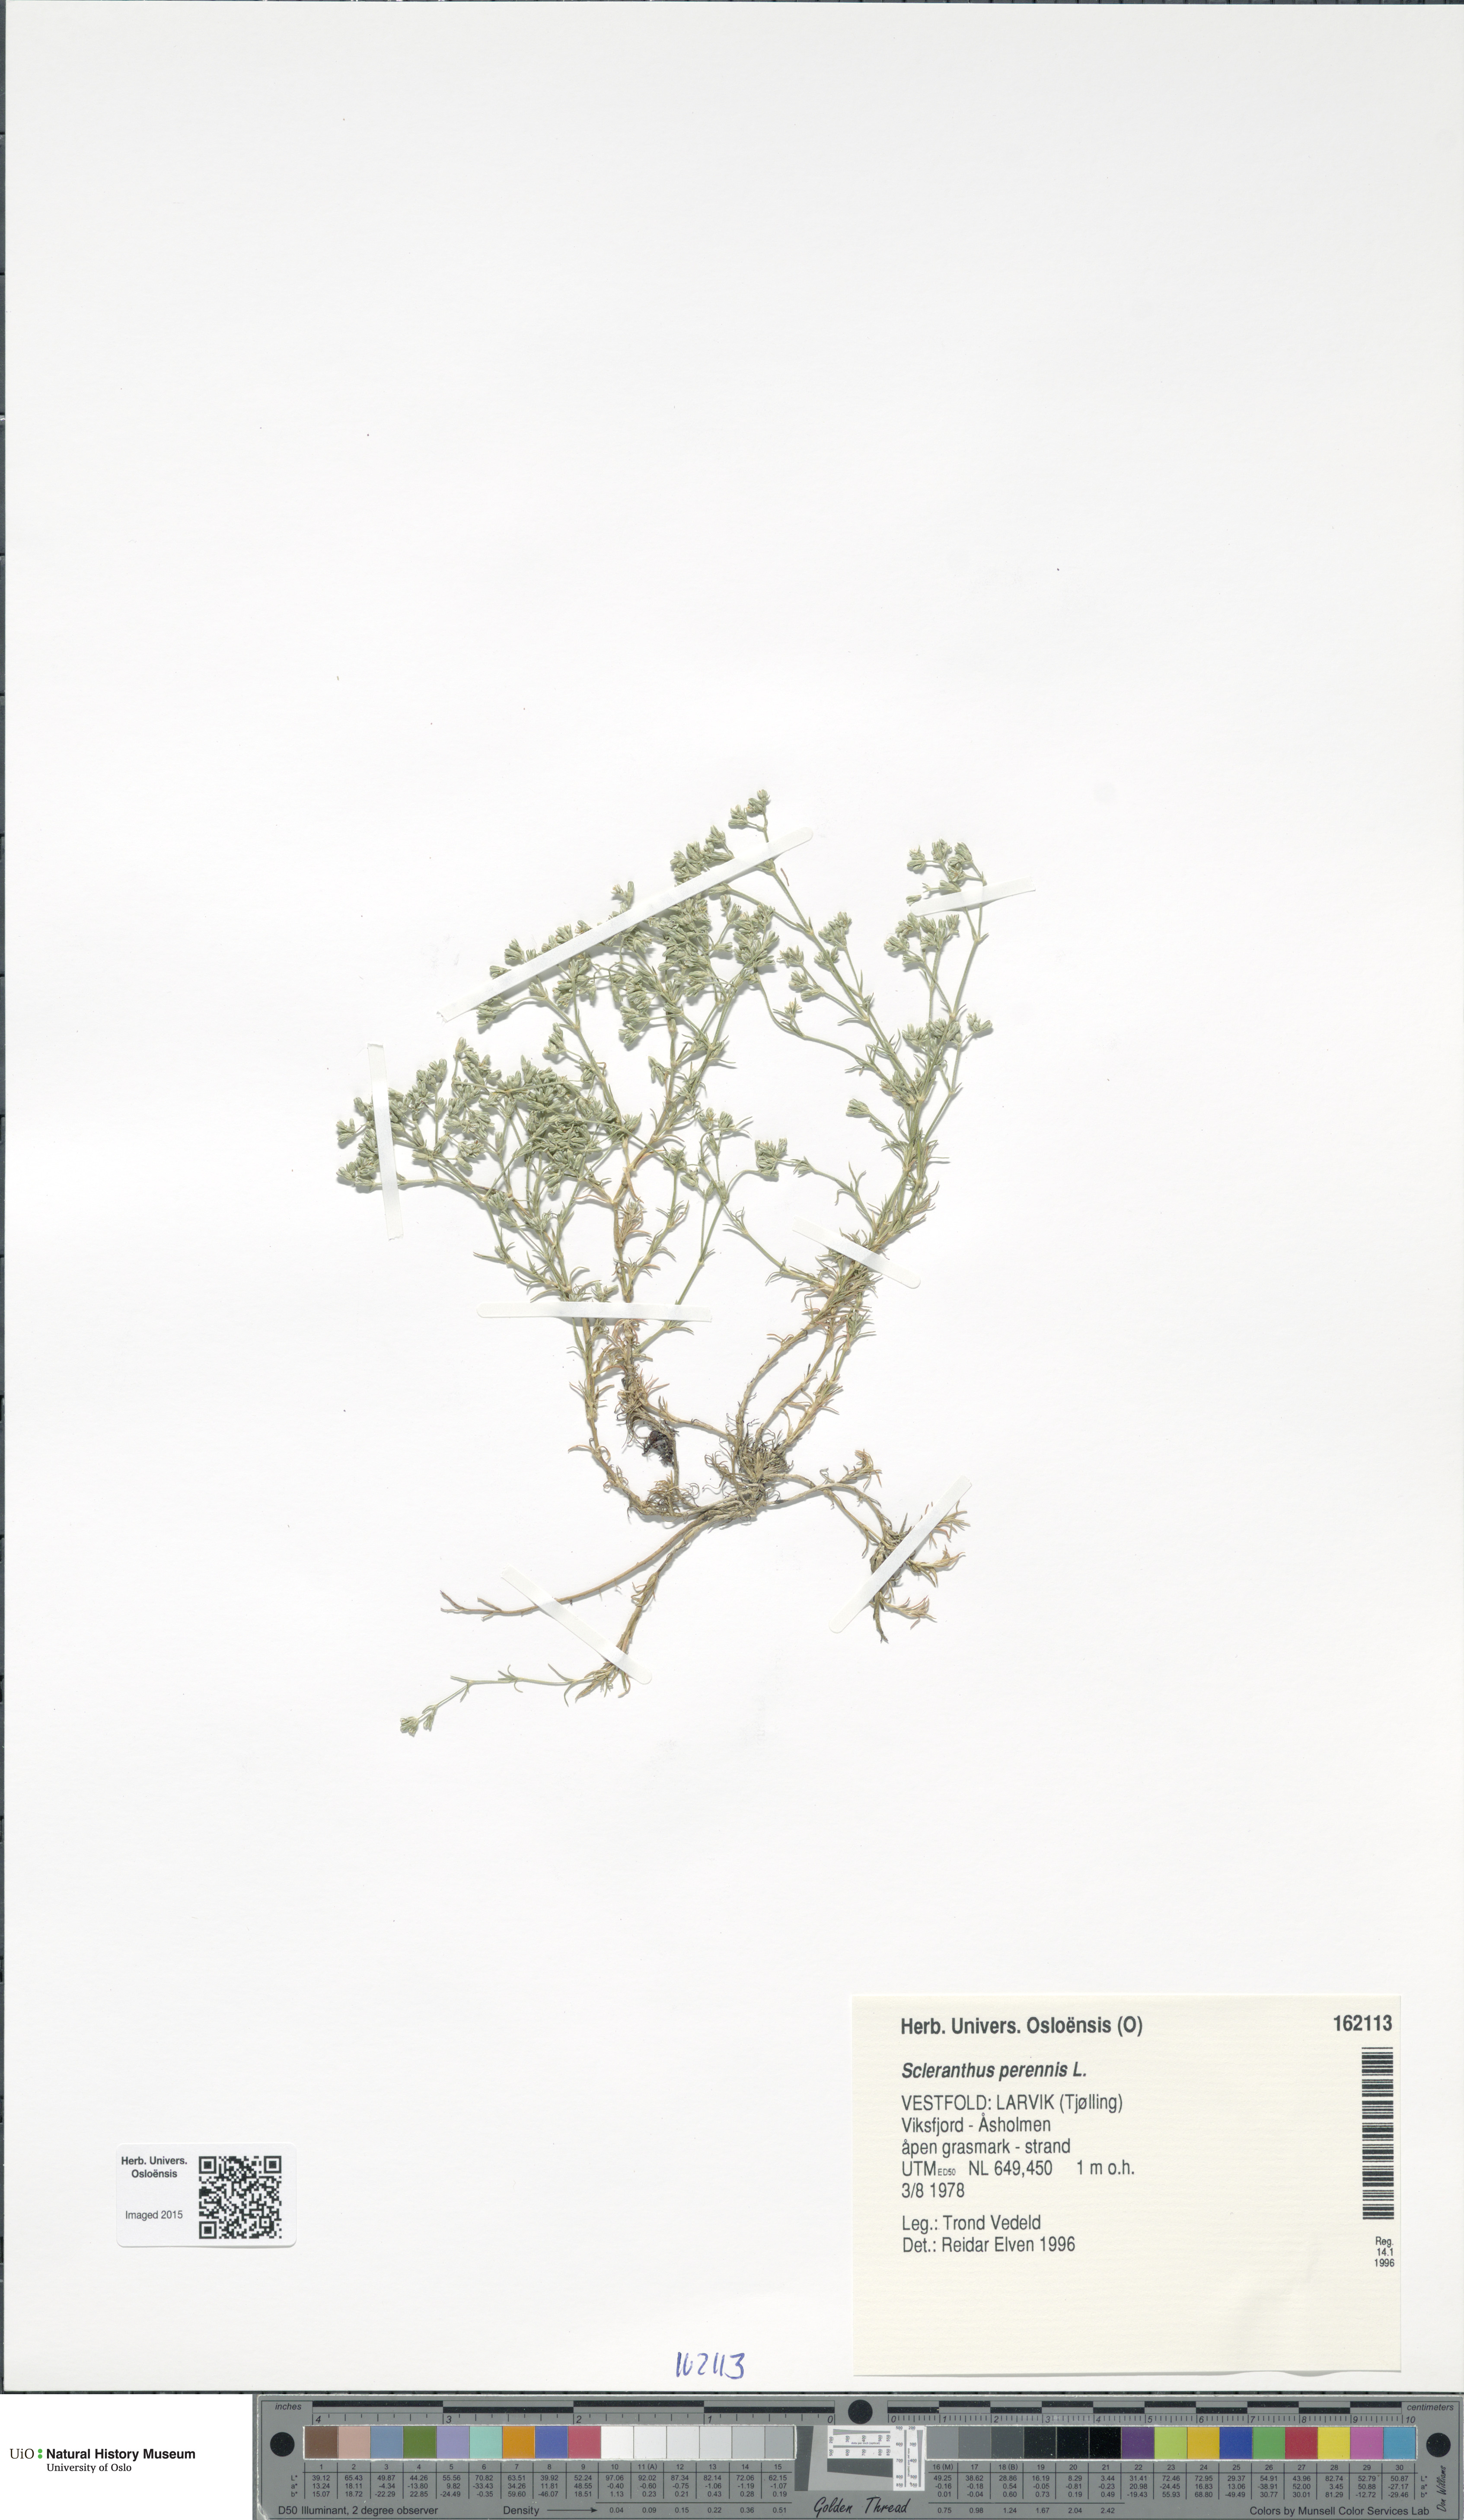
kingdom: Plantae
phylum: Tracheophyta
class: Magnoliopsida
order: Caryophyllales
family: Caryophyllaceae
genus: Scleranthus
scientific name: Scleranthus perennis
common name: Perennial knawel
